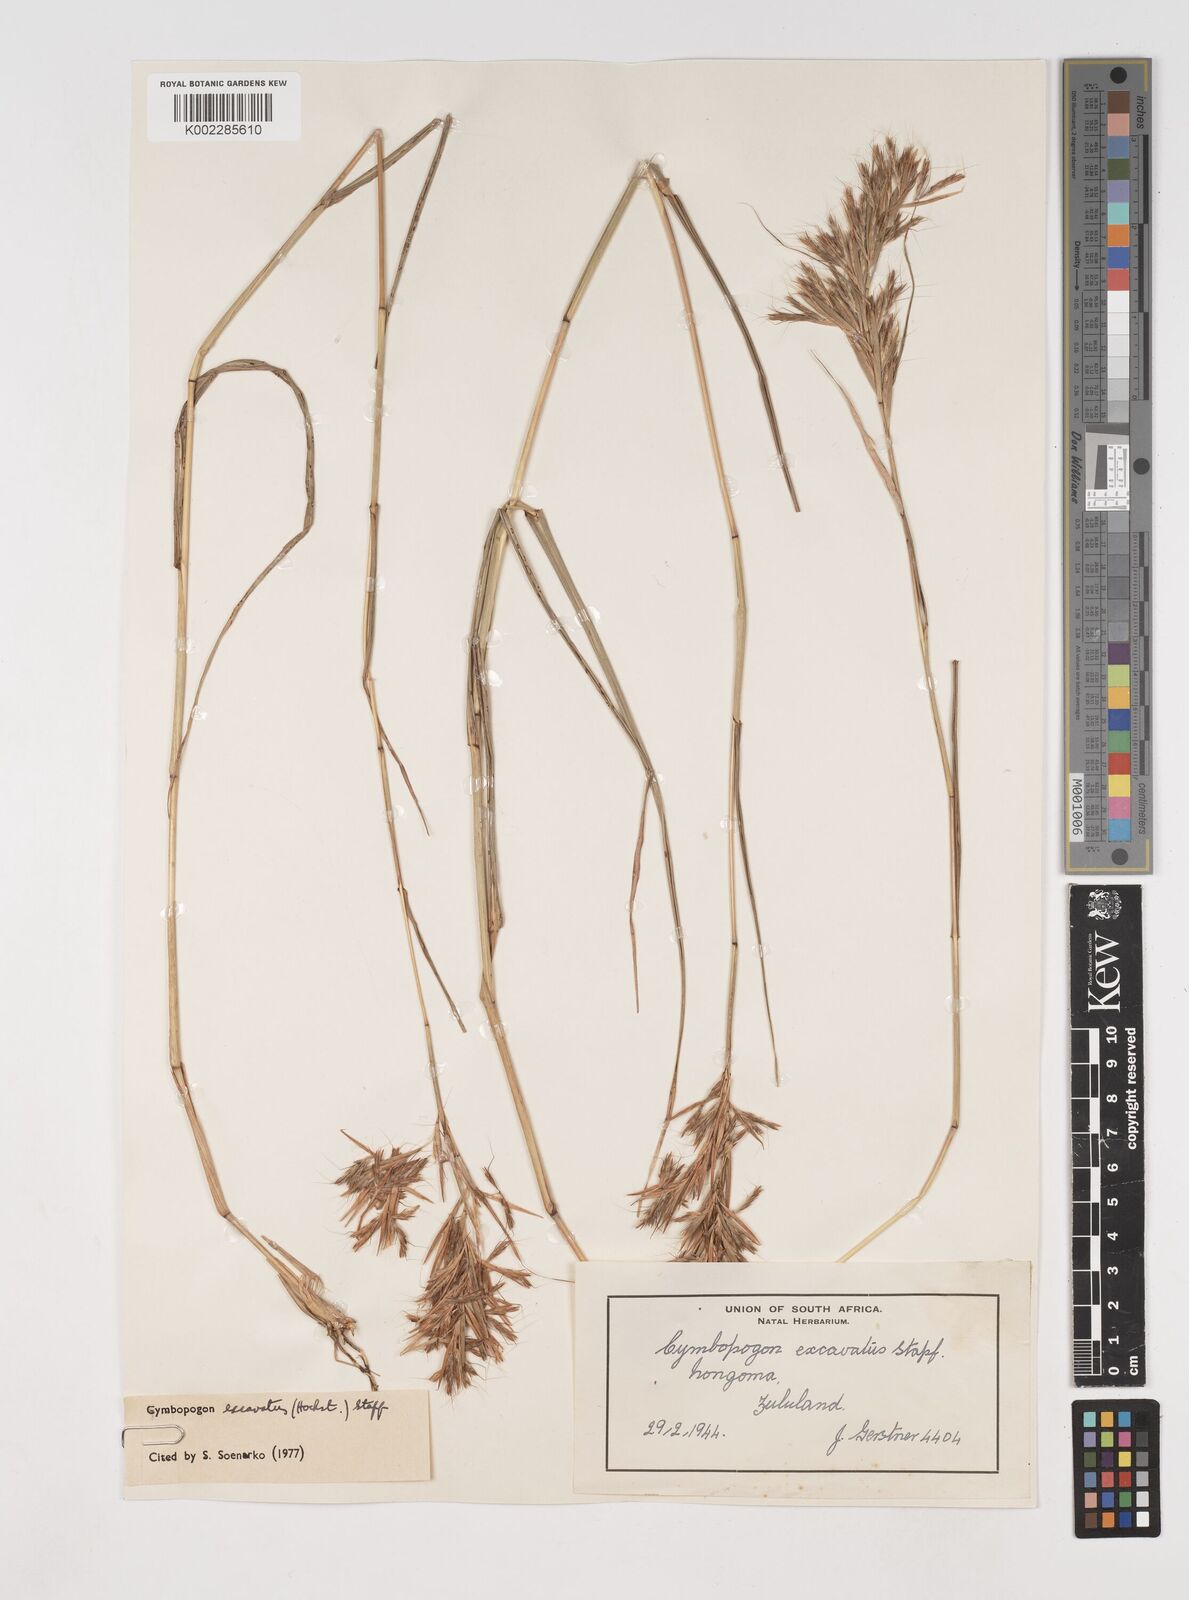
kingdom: Plantae
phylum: Tracheophyta
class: Liliopsida
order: Poales
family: Poaceae
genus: Cymbopogon
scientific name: Cymbopogon caesius
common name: Kachi grass
